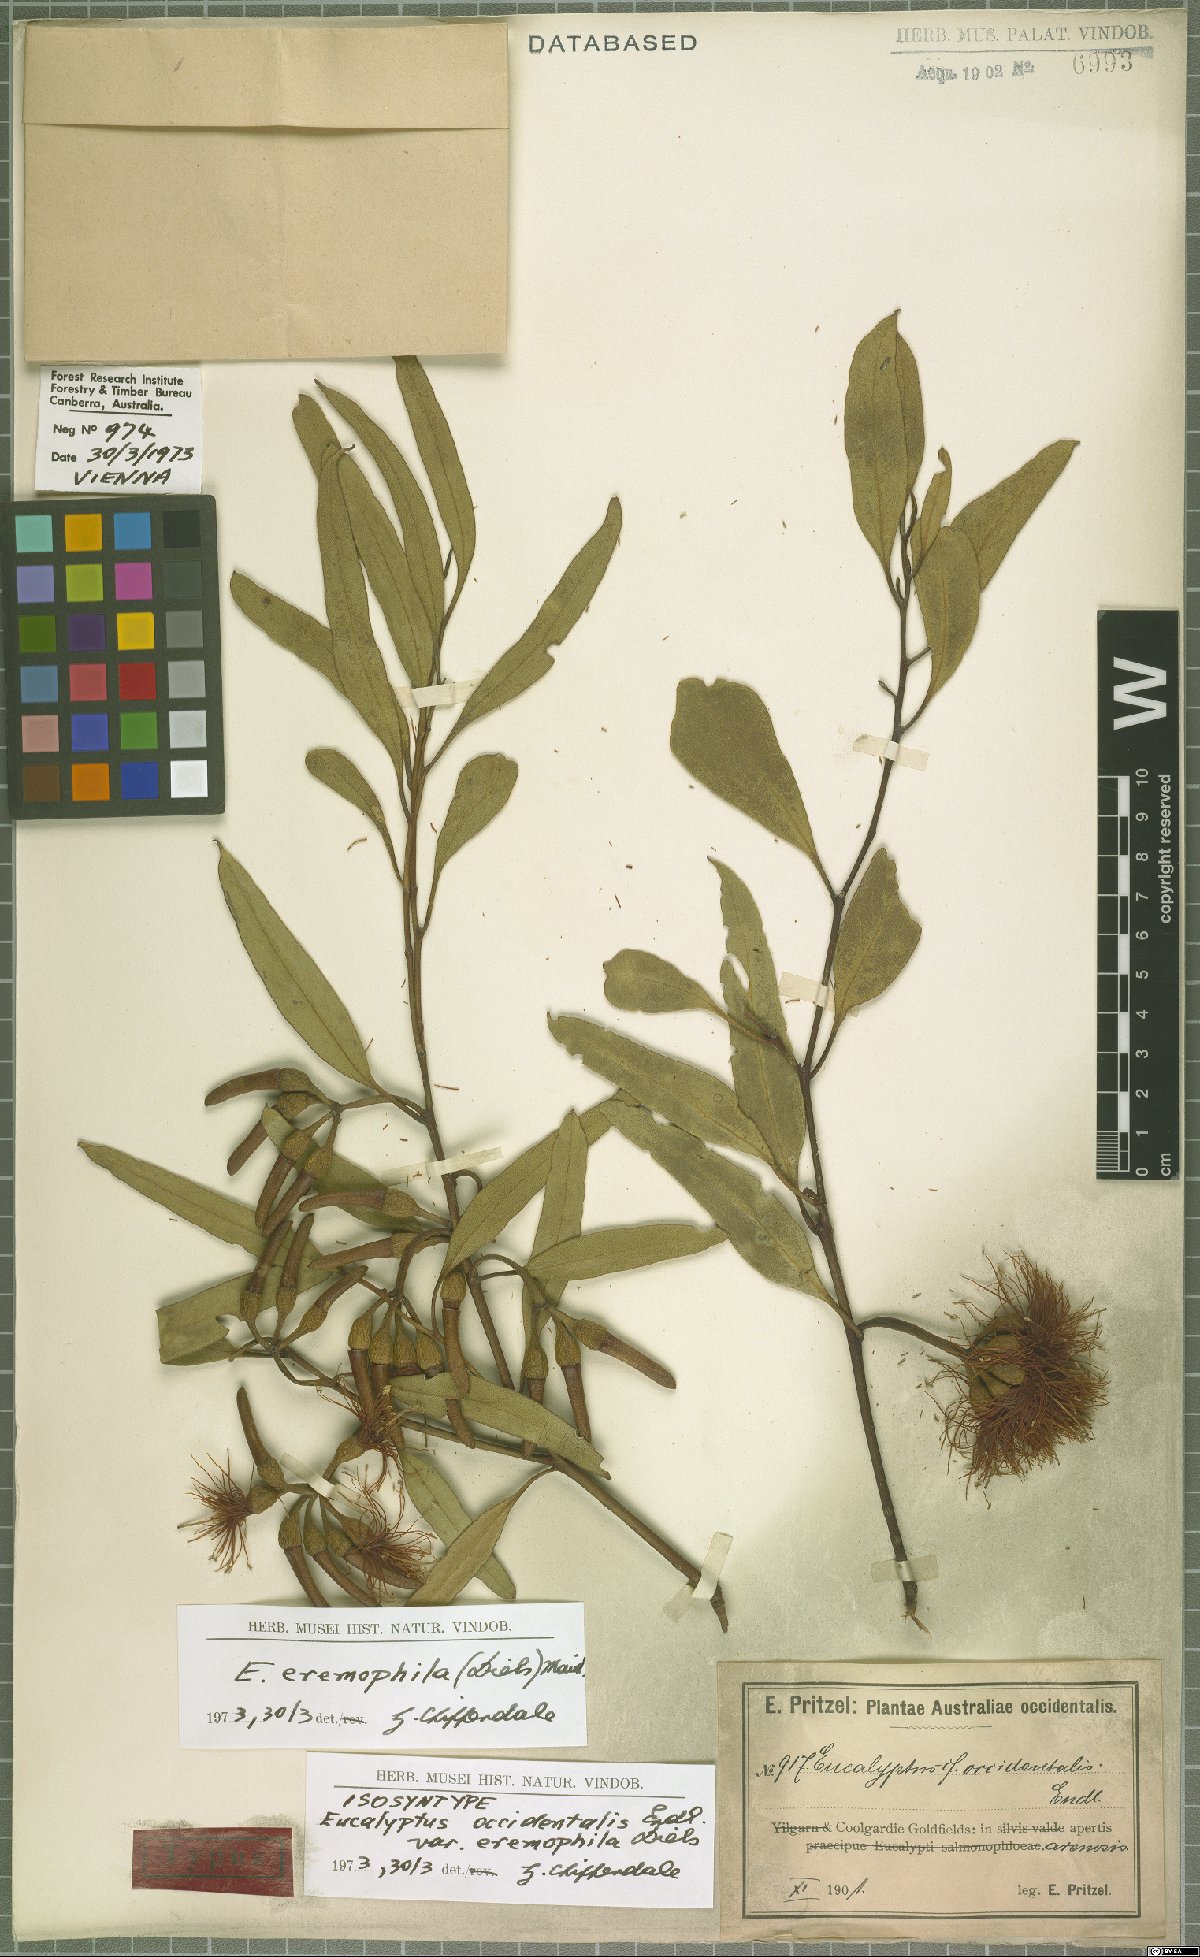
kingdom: Plantae
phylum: Tracheophyta
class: Magnoliopsida
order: Myrtales
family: Myrtaceae
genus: Eucalyptus
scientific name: Eucalyptus eremophila
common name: Tall sand mallee
